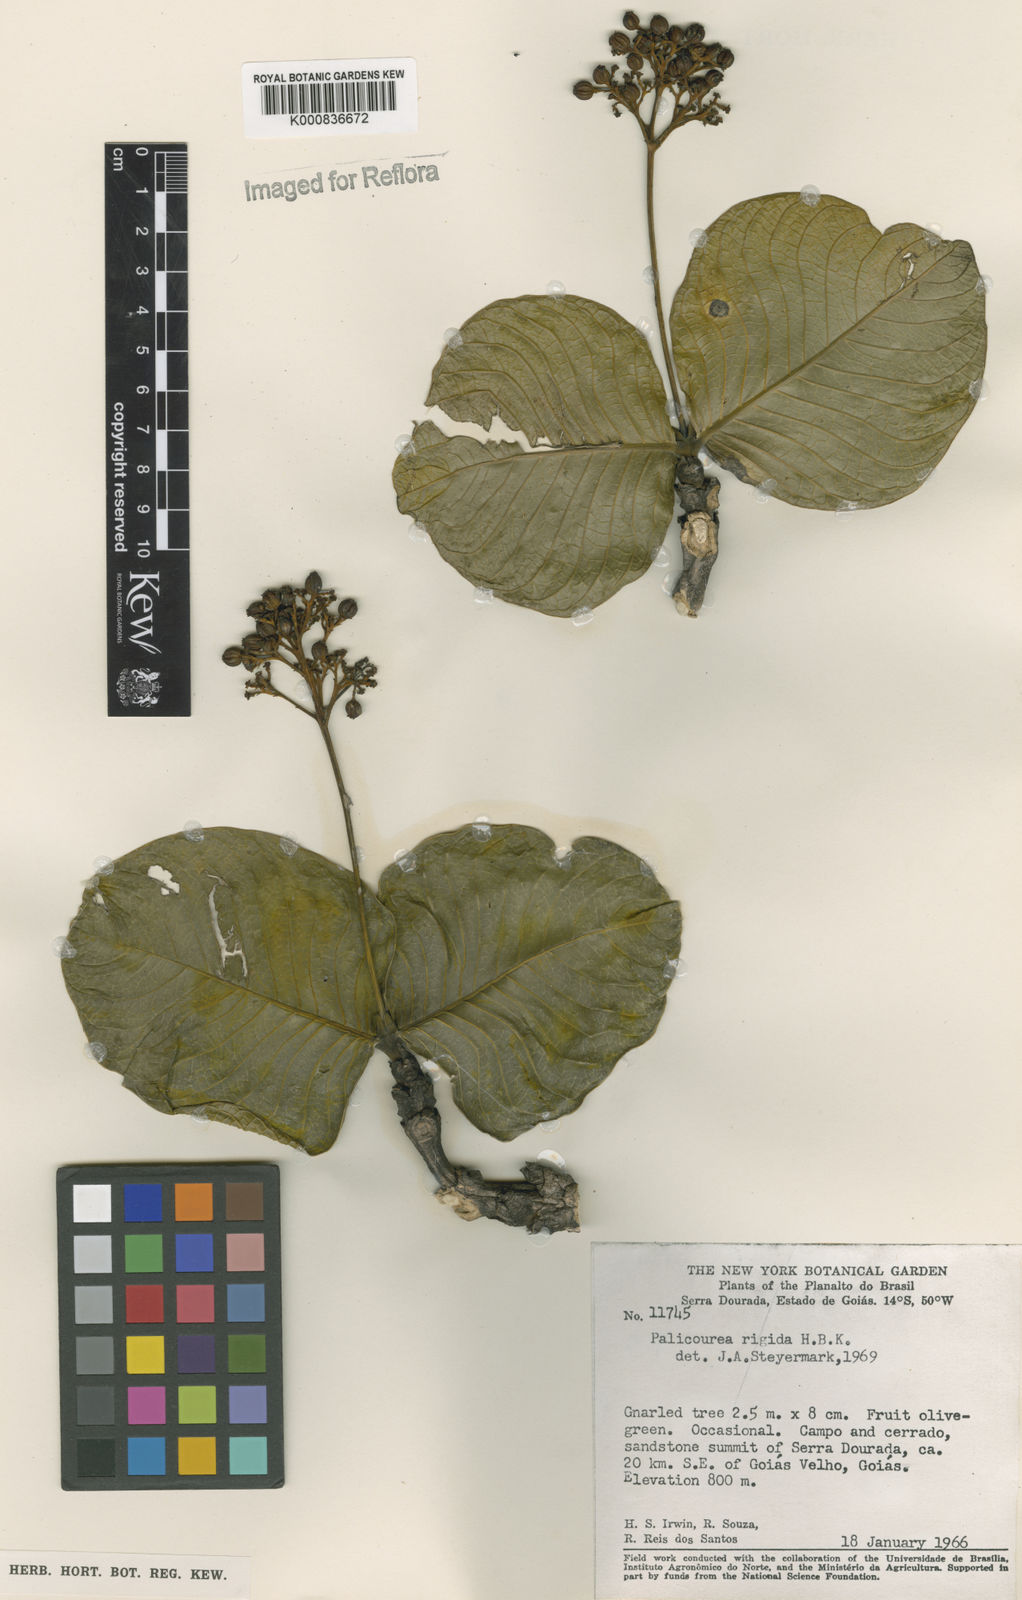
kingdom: Plantae
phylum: Tracheophyta
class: Magnoliopsida
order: Gentianales
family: Rubiaceae
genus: Palicourea
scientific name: Palicourea rigida
